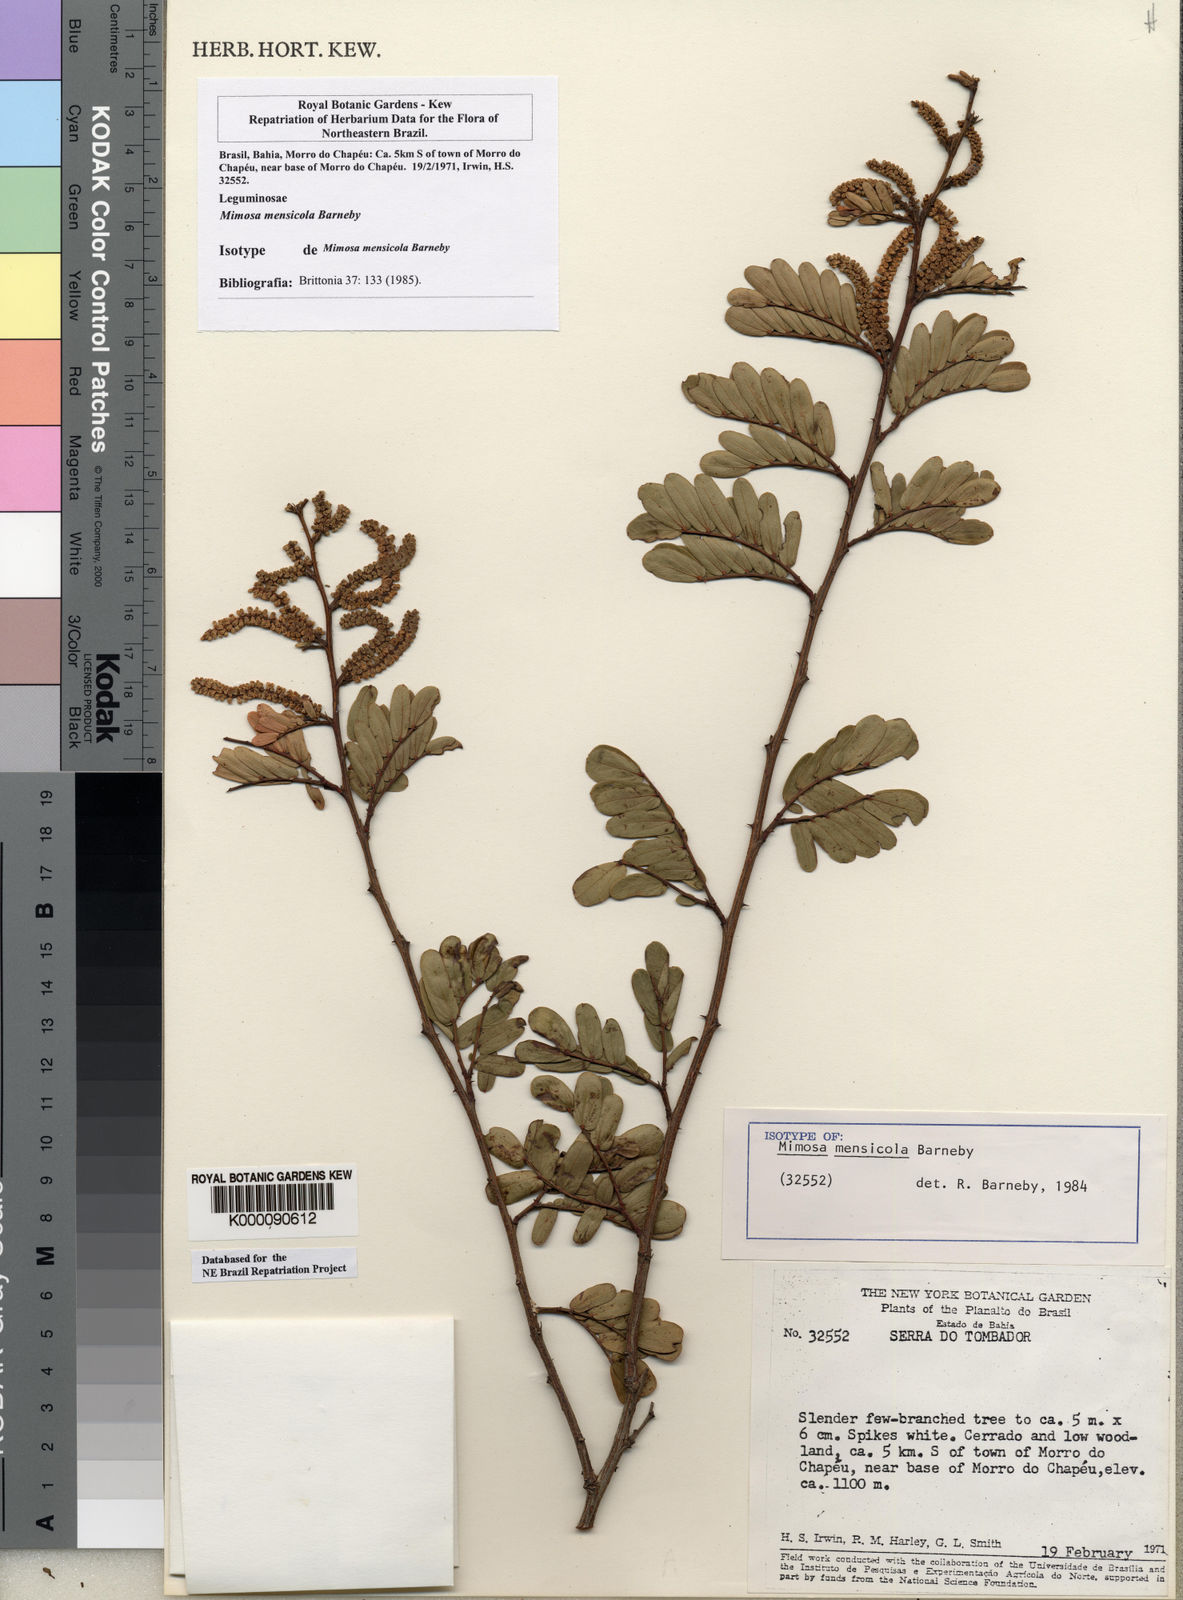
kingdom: Plantae
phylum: Tracheophyta
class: Magnoliopsida
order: Fabales
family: Fabaceae
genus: Mimosa
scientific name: Mimosa mensicola
